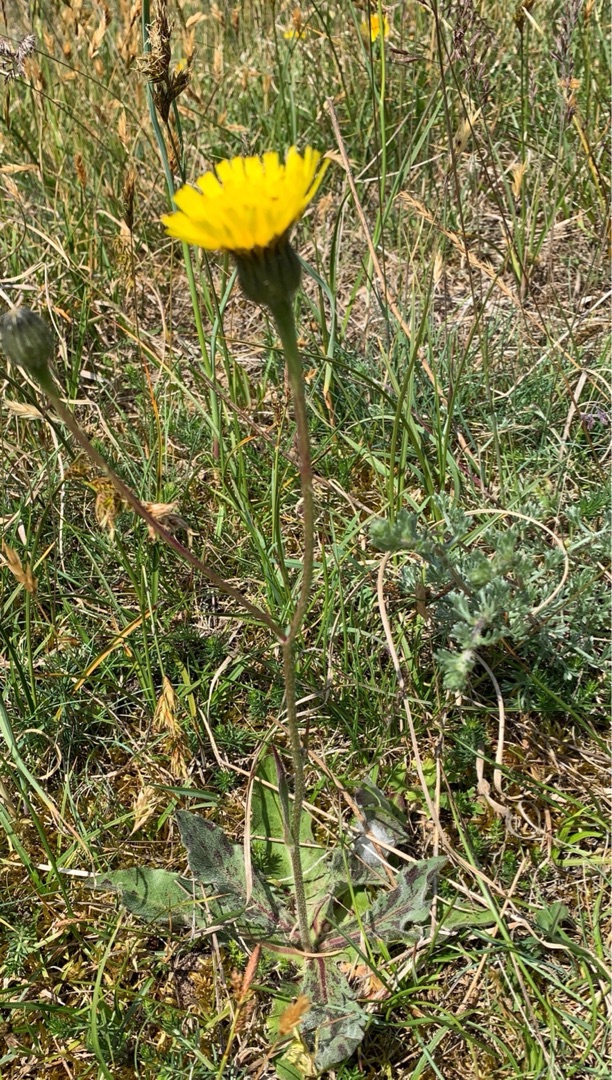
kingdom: Plantae
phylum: Tracheophyta
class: Magnoliopsida
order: Asterales
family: Asteraceae
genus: Trommsdorffia
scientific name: Trommsdorffia maculata
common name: Plettet kongepen
